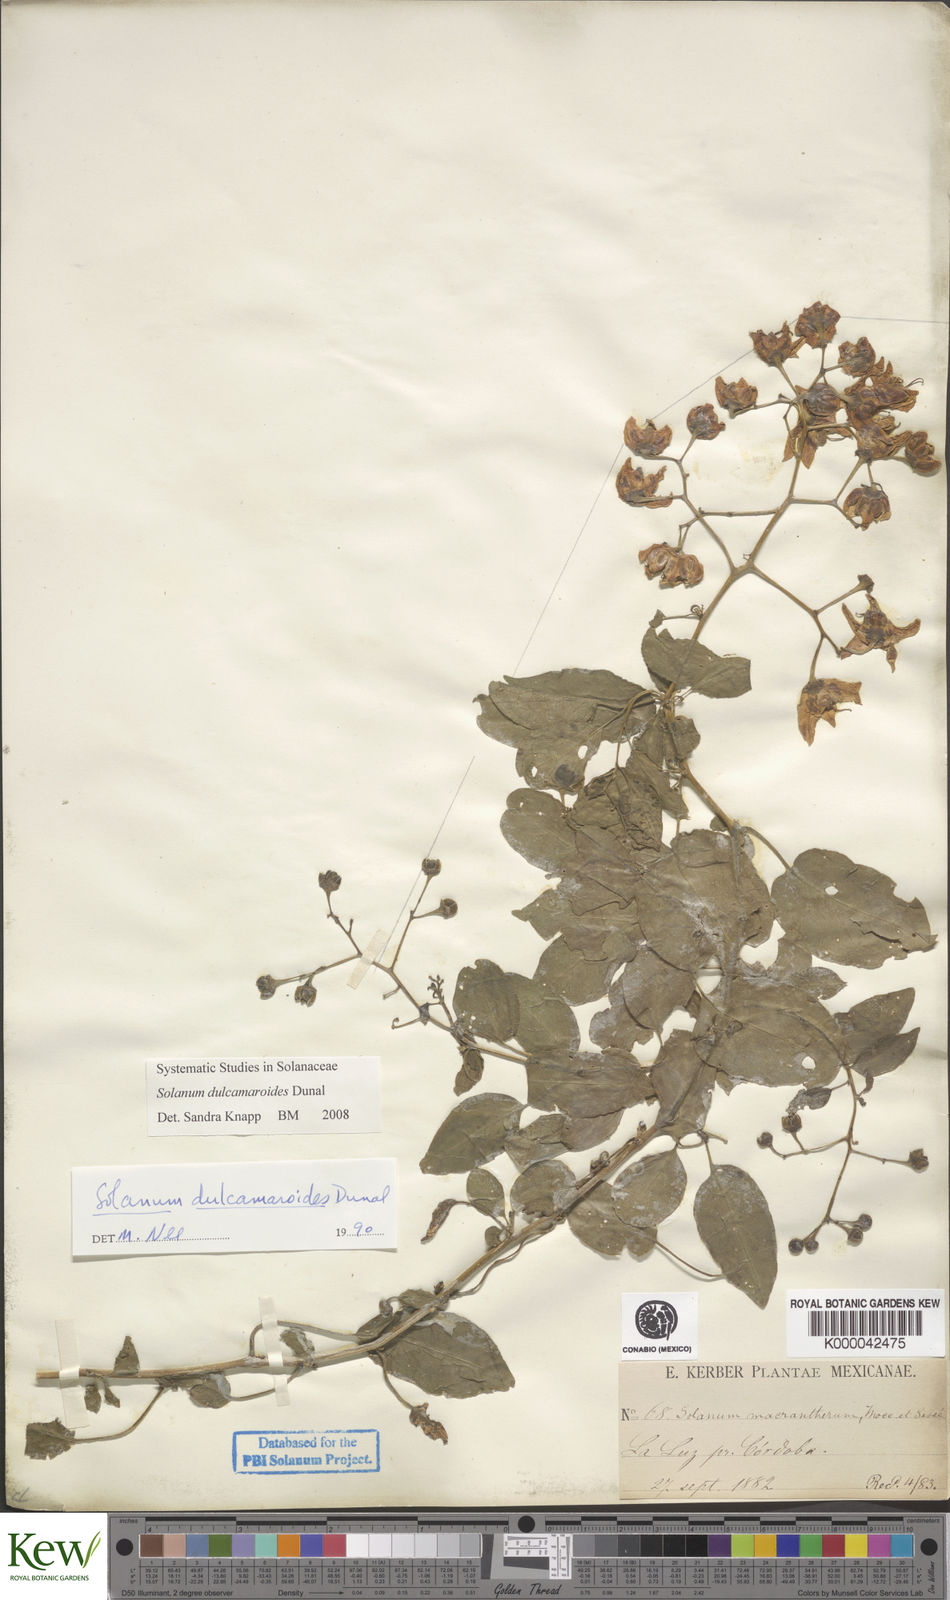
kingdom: Plantae
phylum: Tracheophyta
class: Magnoliopsida
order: Solanales
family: Solanaceae
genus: Solanum
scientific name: Solanum dulcamaroides
